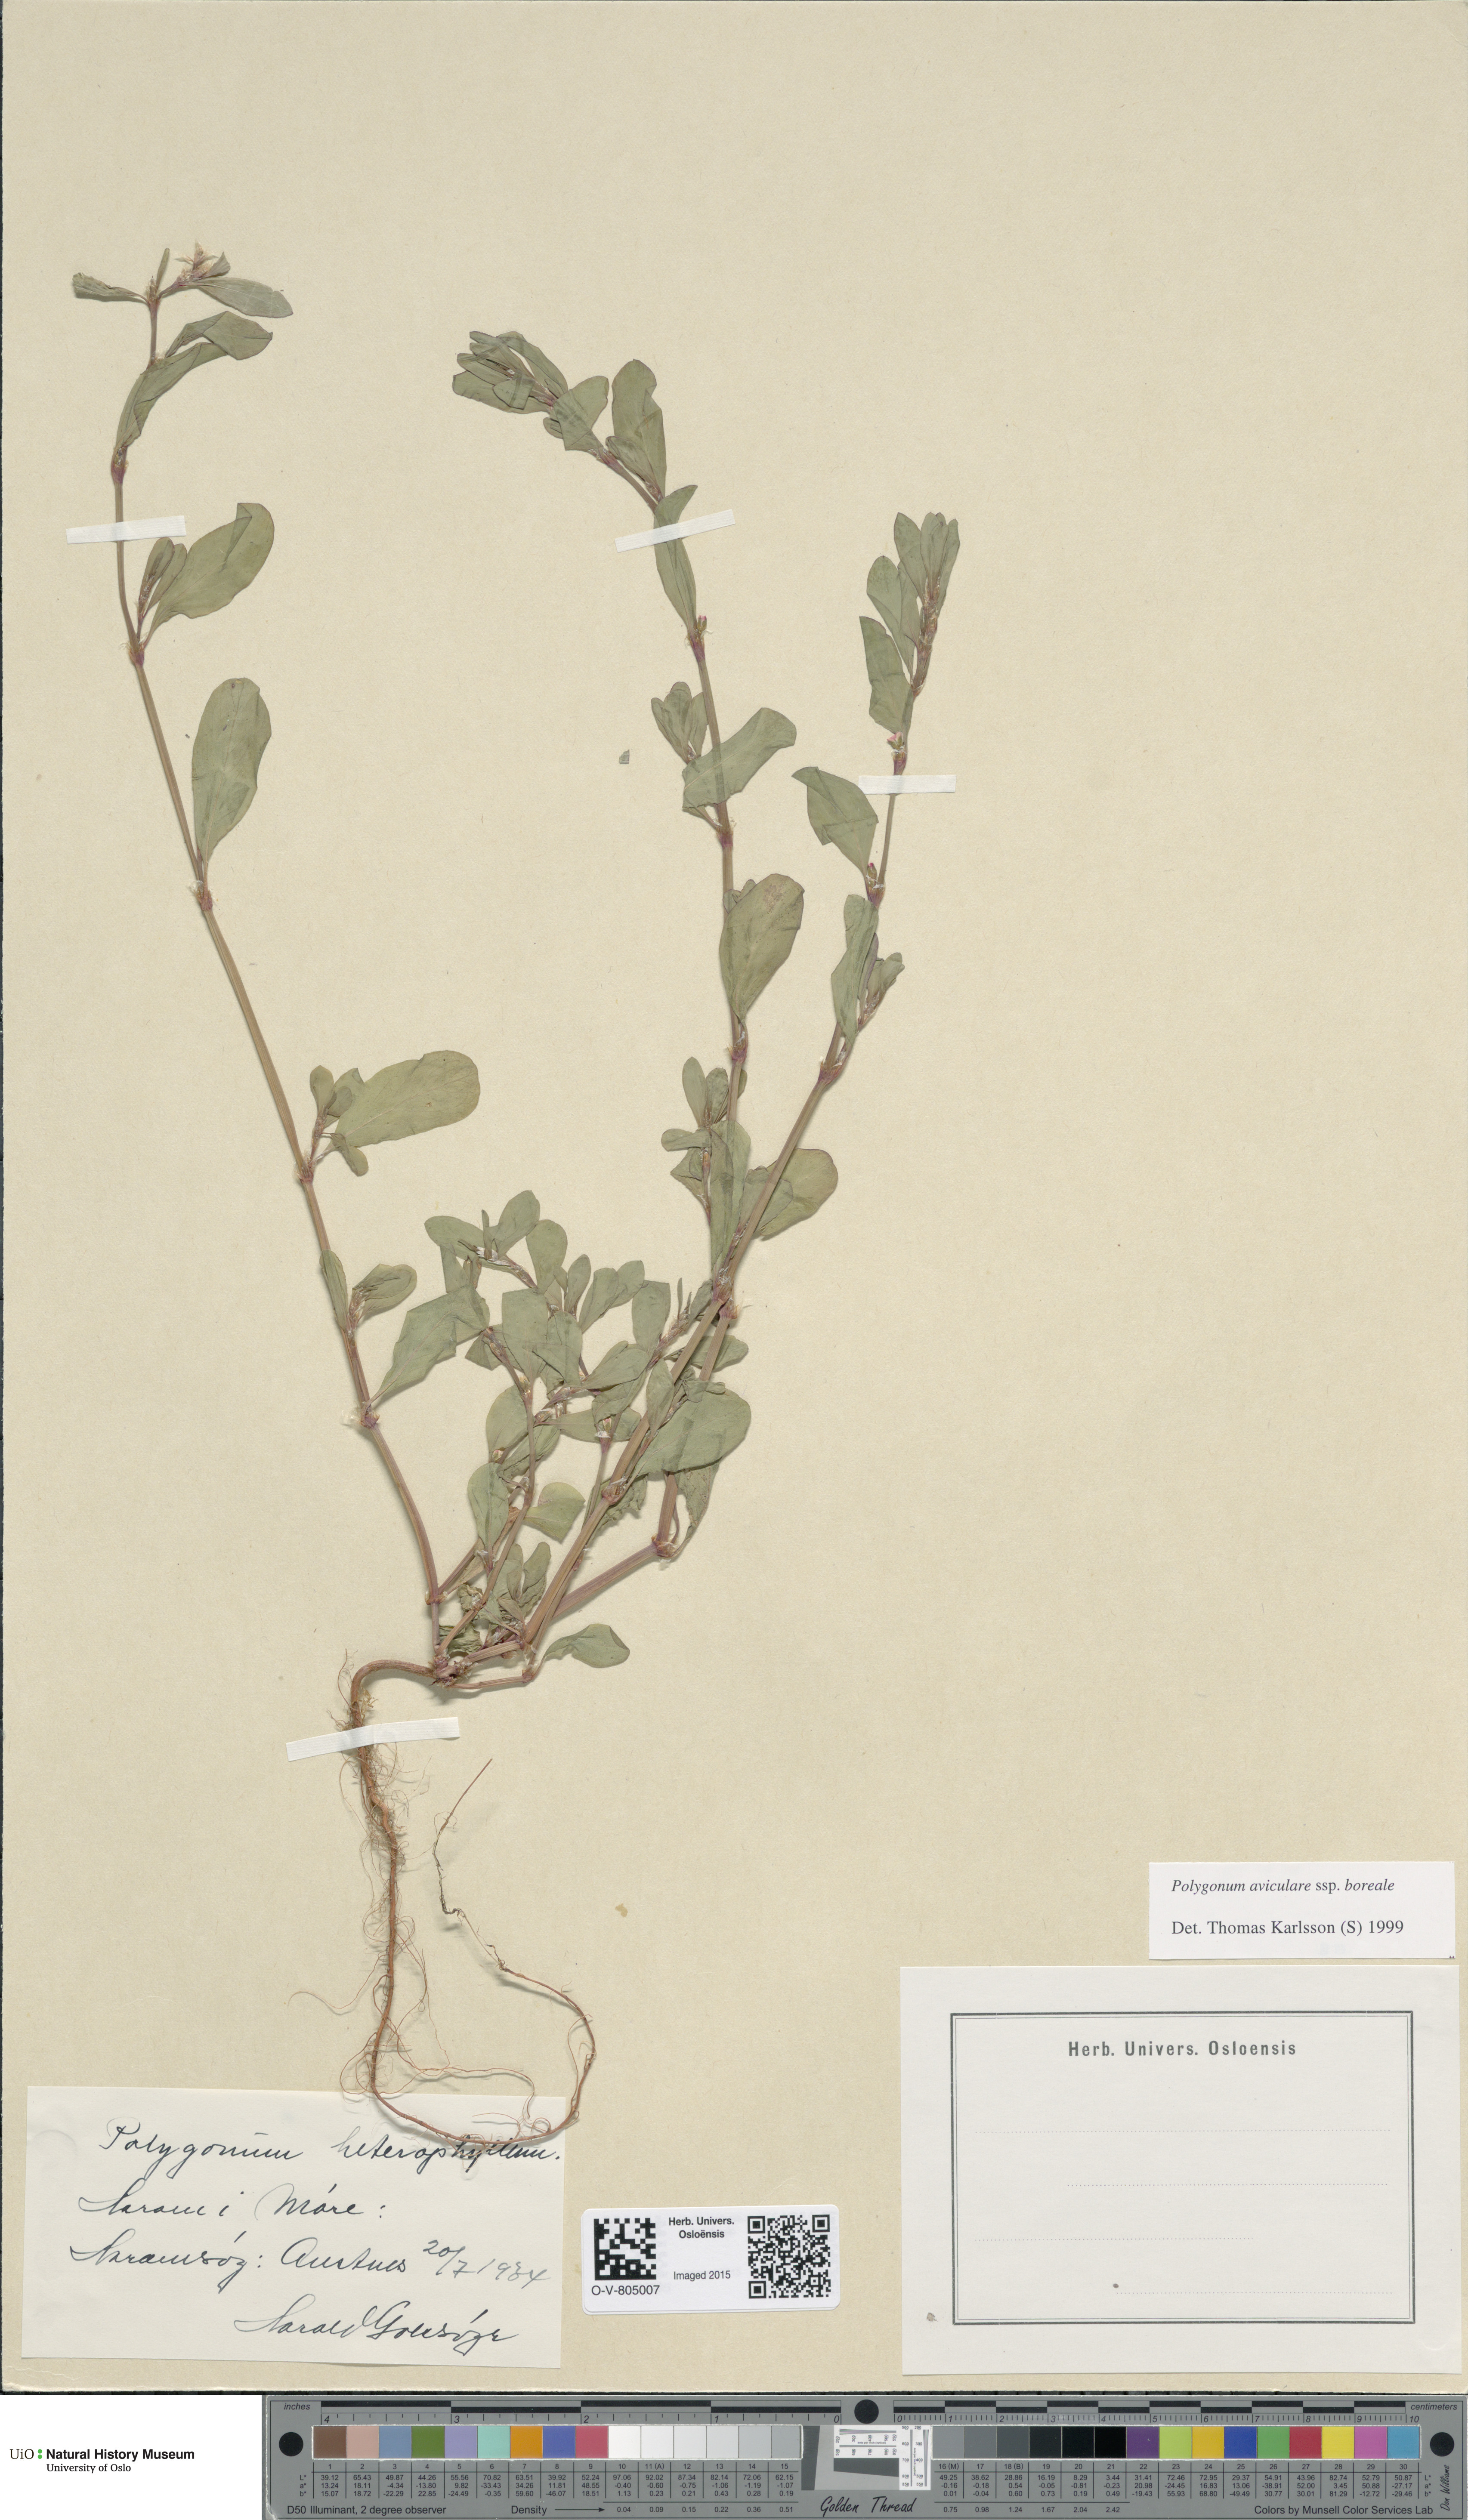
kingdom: Plantae
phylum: Tracheophyta
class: Magnoliopsida
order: Caryophyllales
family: Polygonaceae
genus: Polygonum
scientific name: Polygonum boreale
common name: Northern knotgrass
